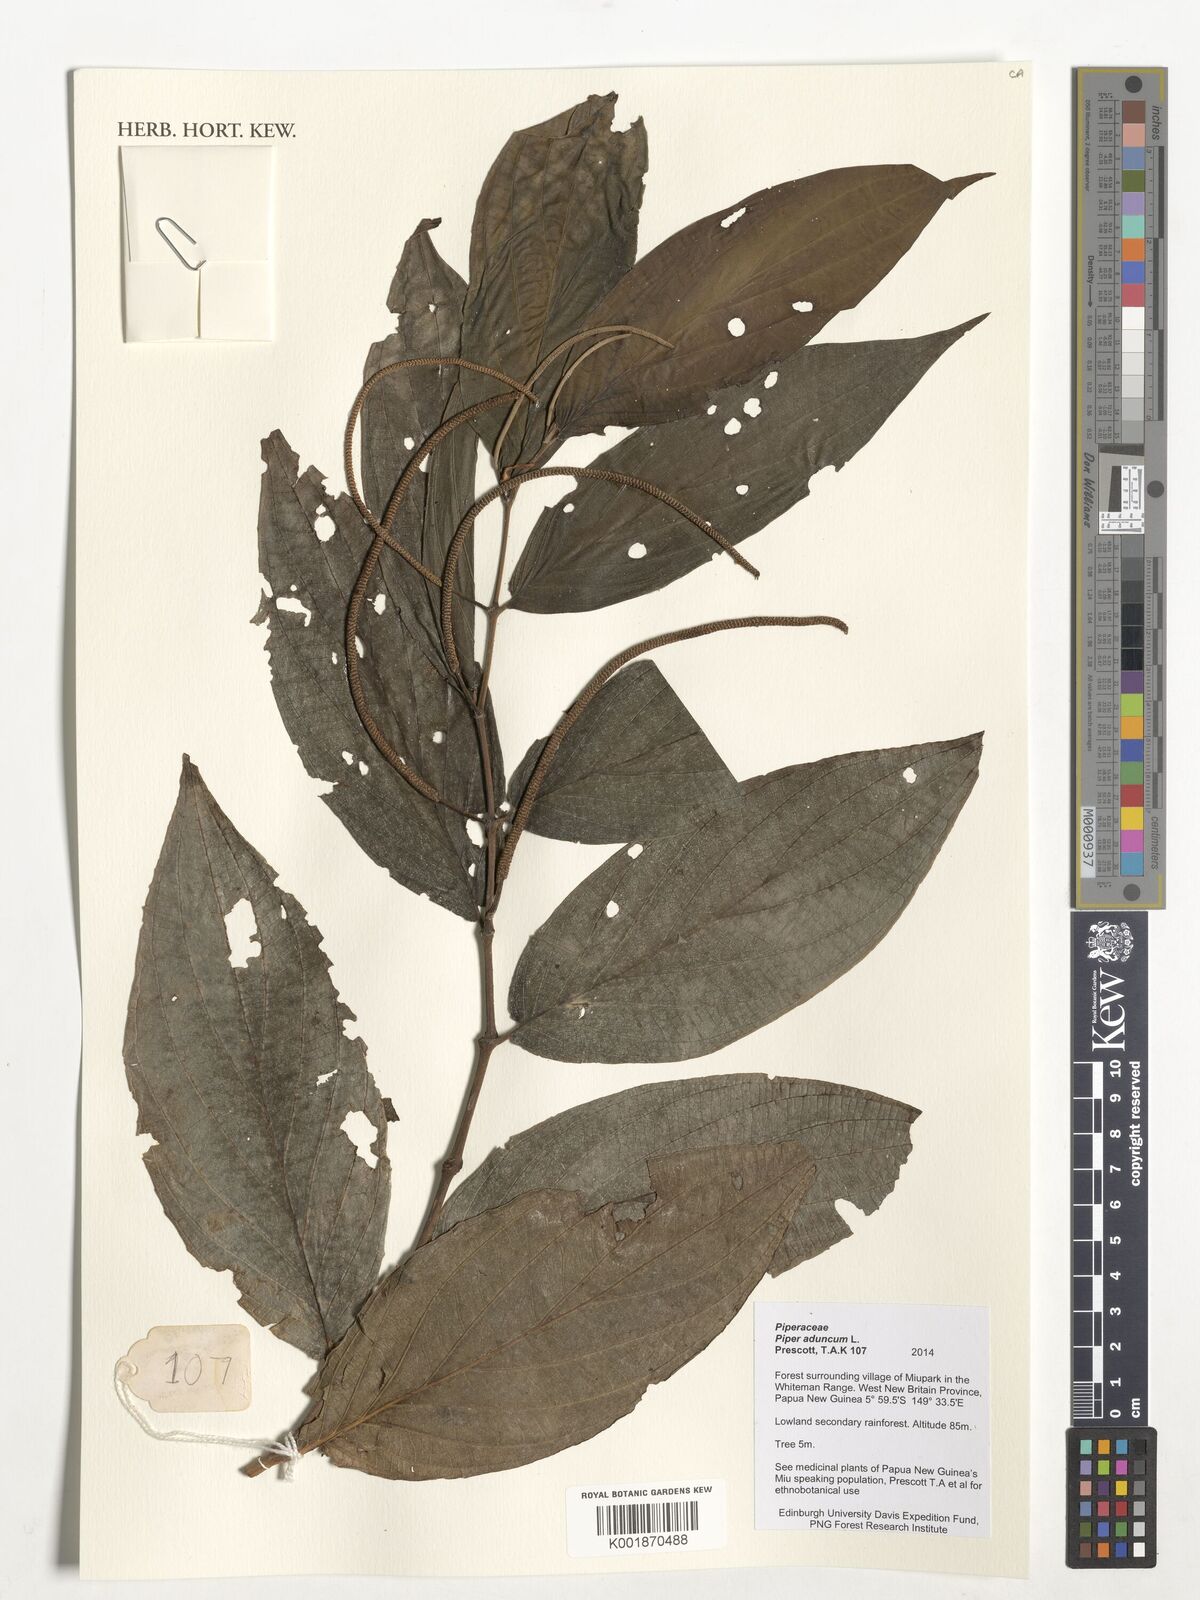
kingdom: Plantae
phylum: Tracheophyta
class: Magnoliopsida
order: Piperales
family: Piperaceae
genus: Piper
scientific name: Piper aduncum
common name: Spiked pepper
